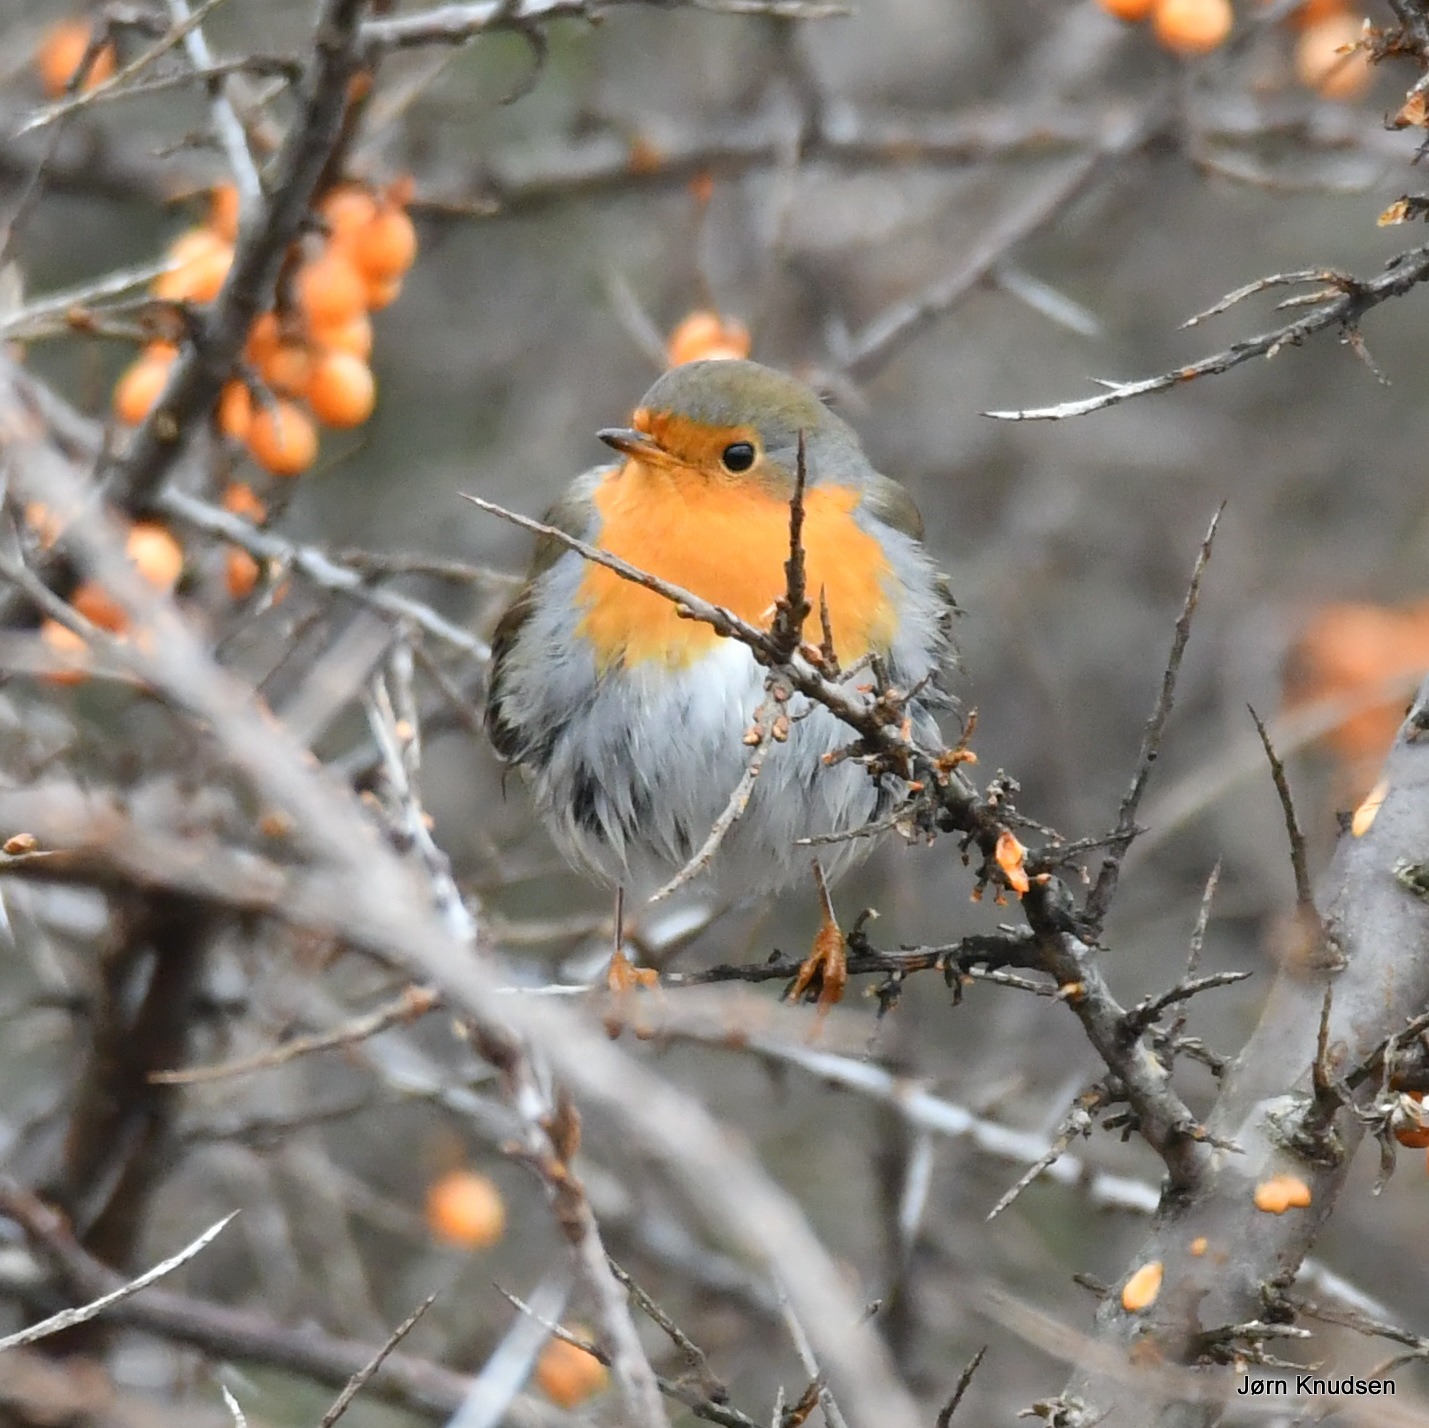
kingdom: Animalia
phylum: Chordata
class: Aves
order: Passeriformes
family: Muscicapidae
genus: Erithacus
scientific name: Erithacus rubecula
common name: Rødhals/rødkælk
